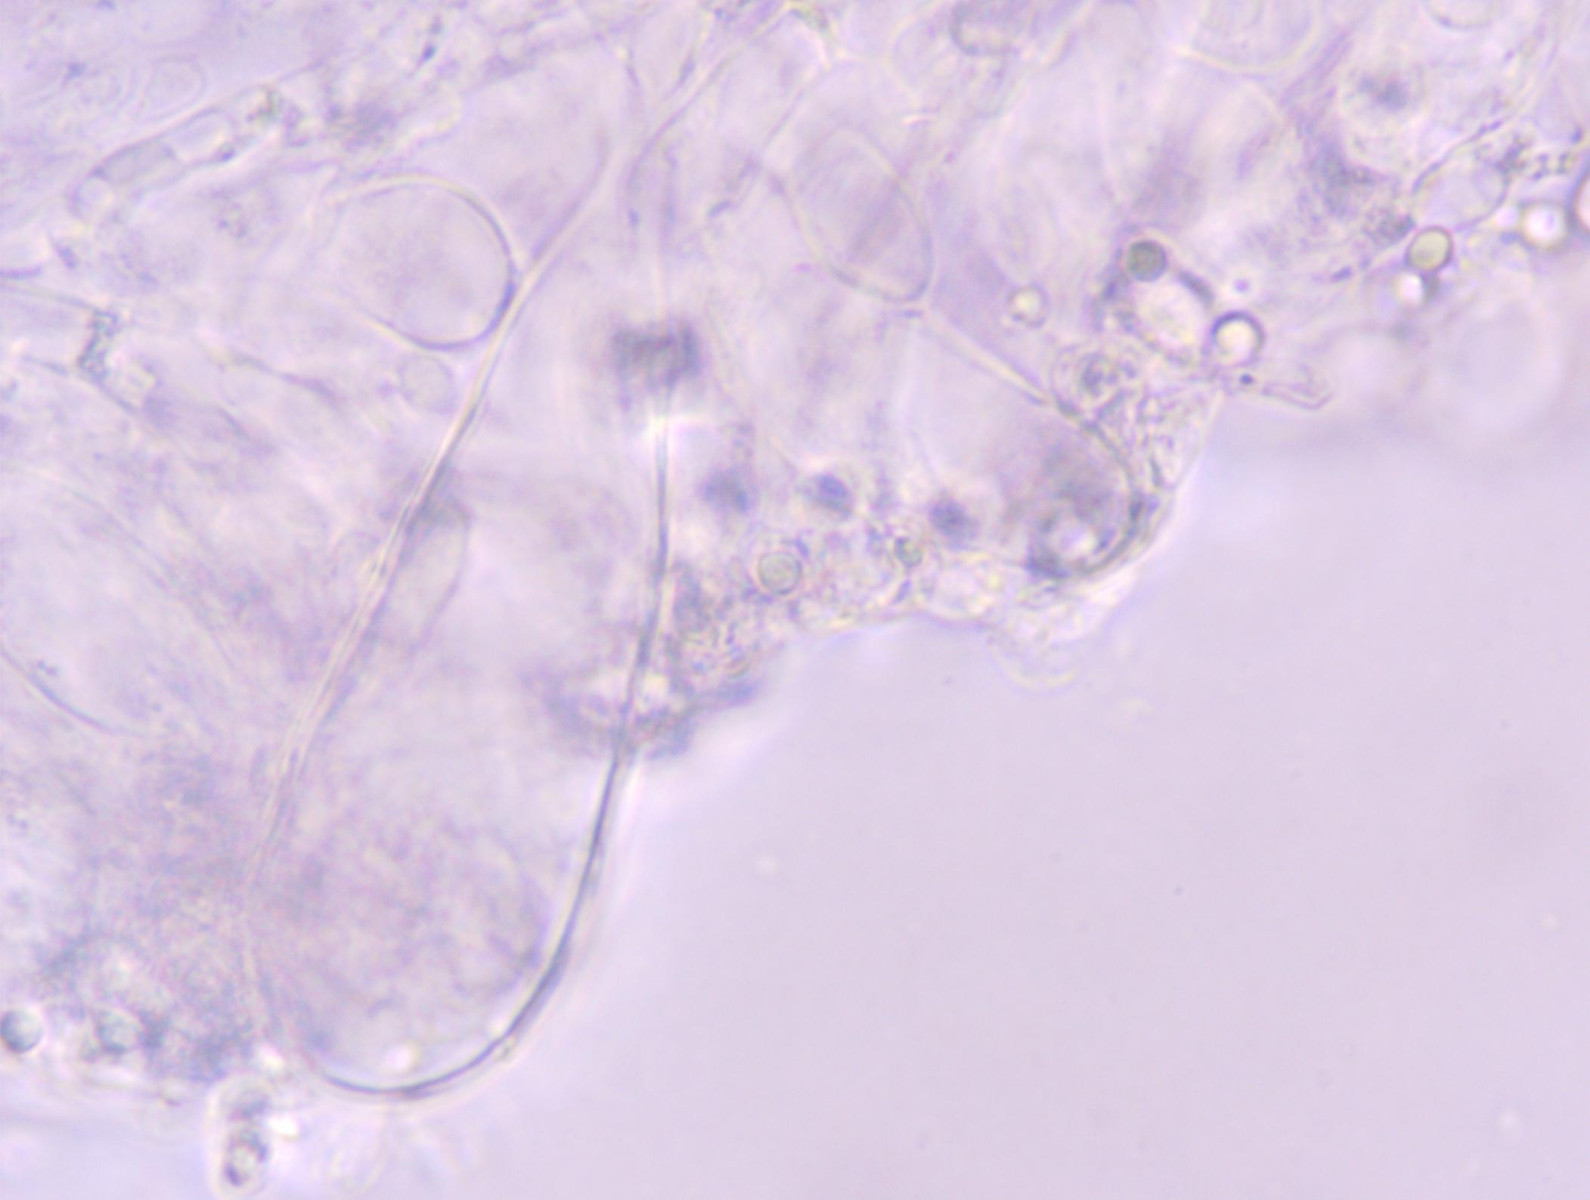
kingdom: Fungi
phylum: Basidiomycota
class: Agaricomycetes
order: Agaricales
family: Mycenaceae
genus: Mycena
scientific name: Mycena rosea
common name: rosa huesvamp
